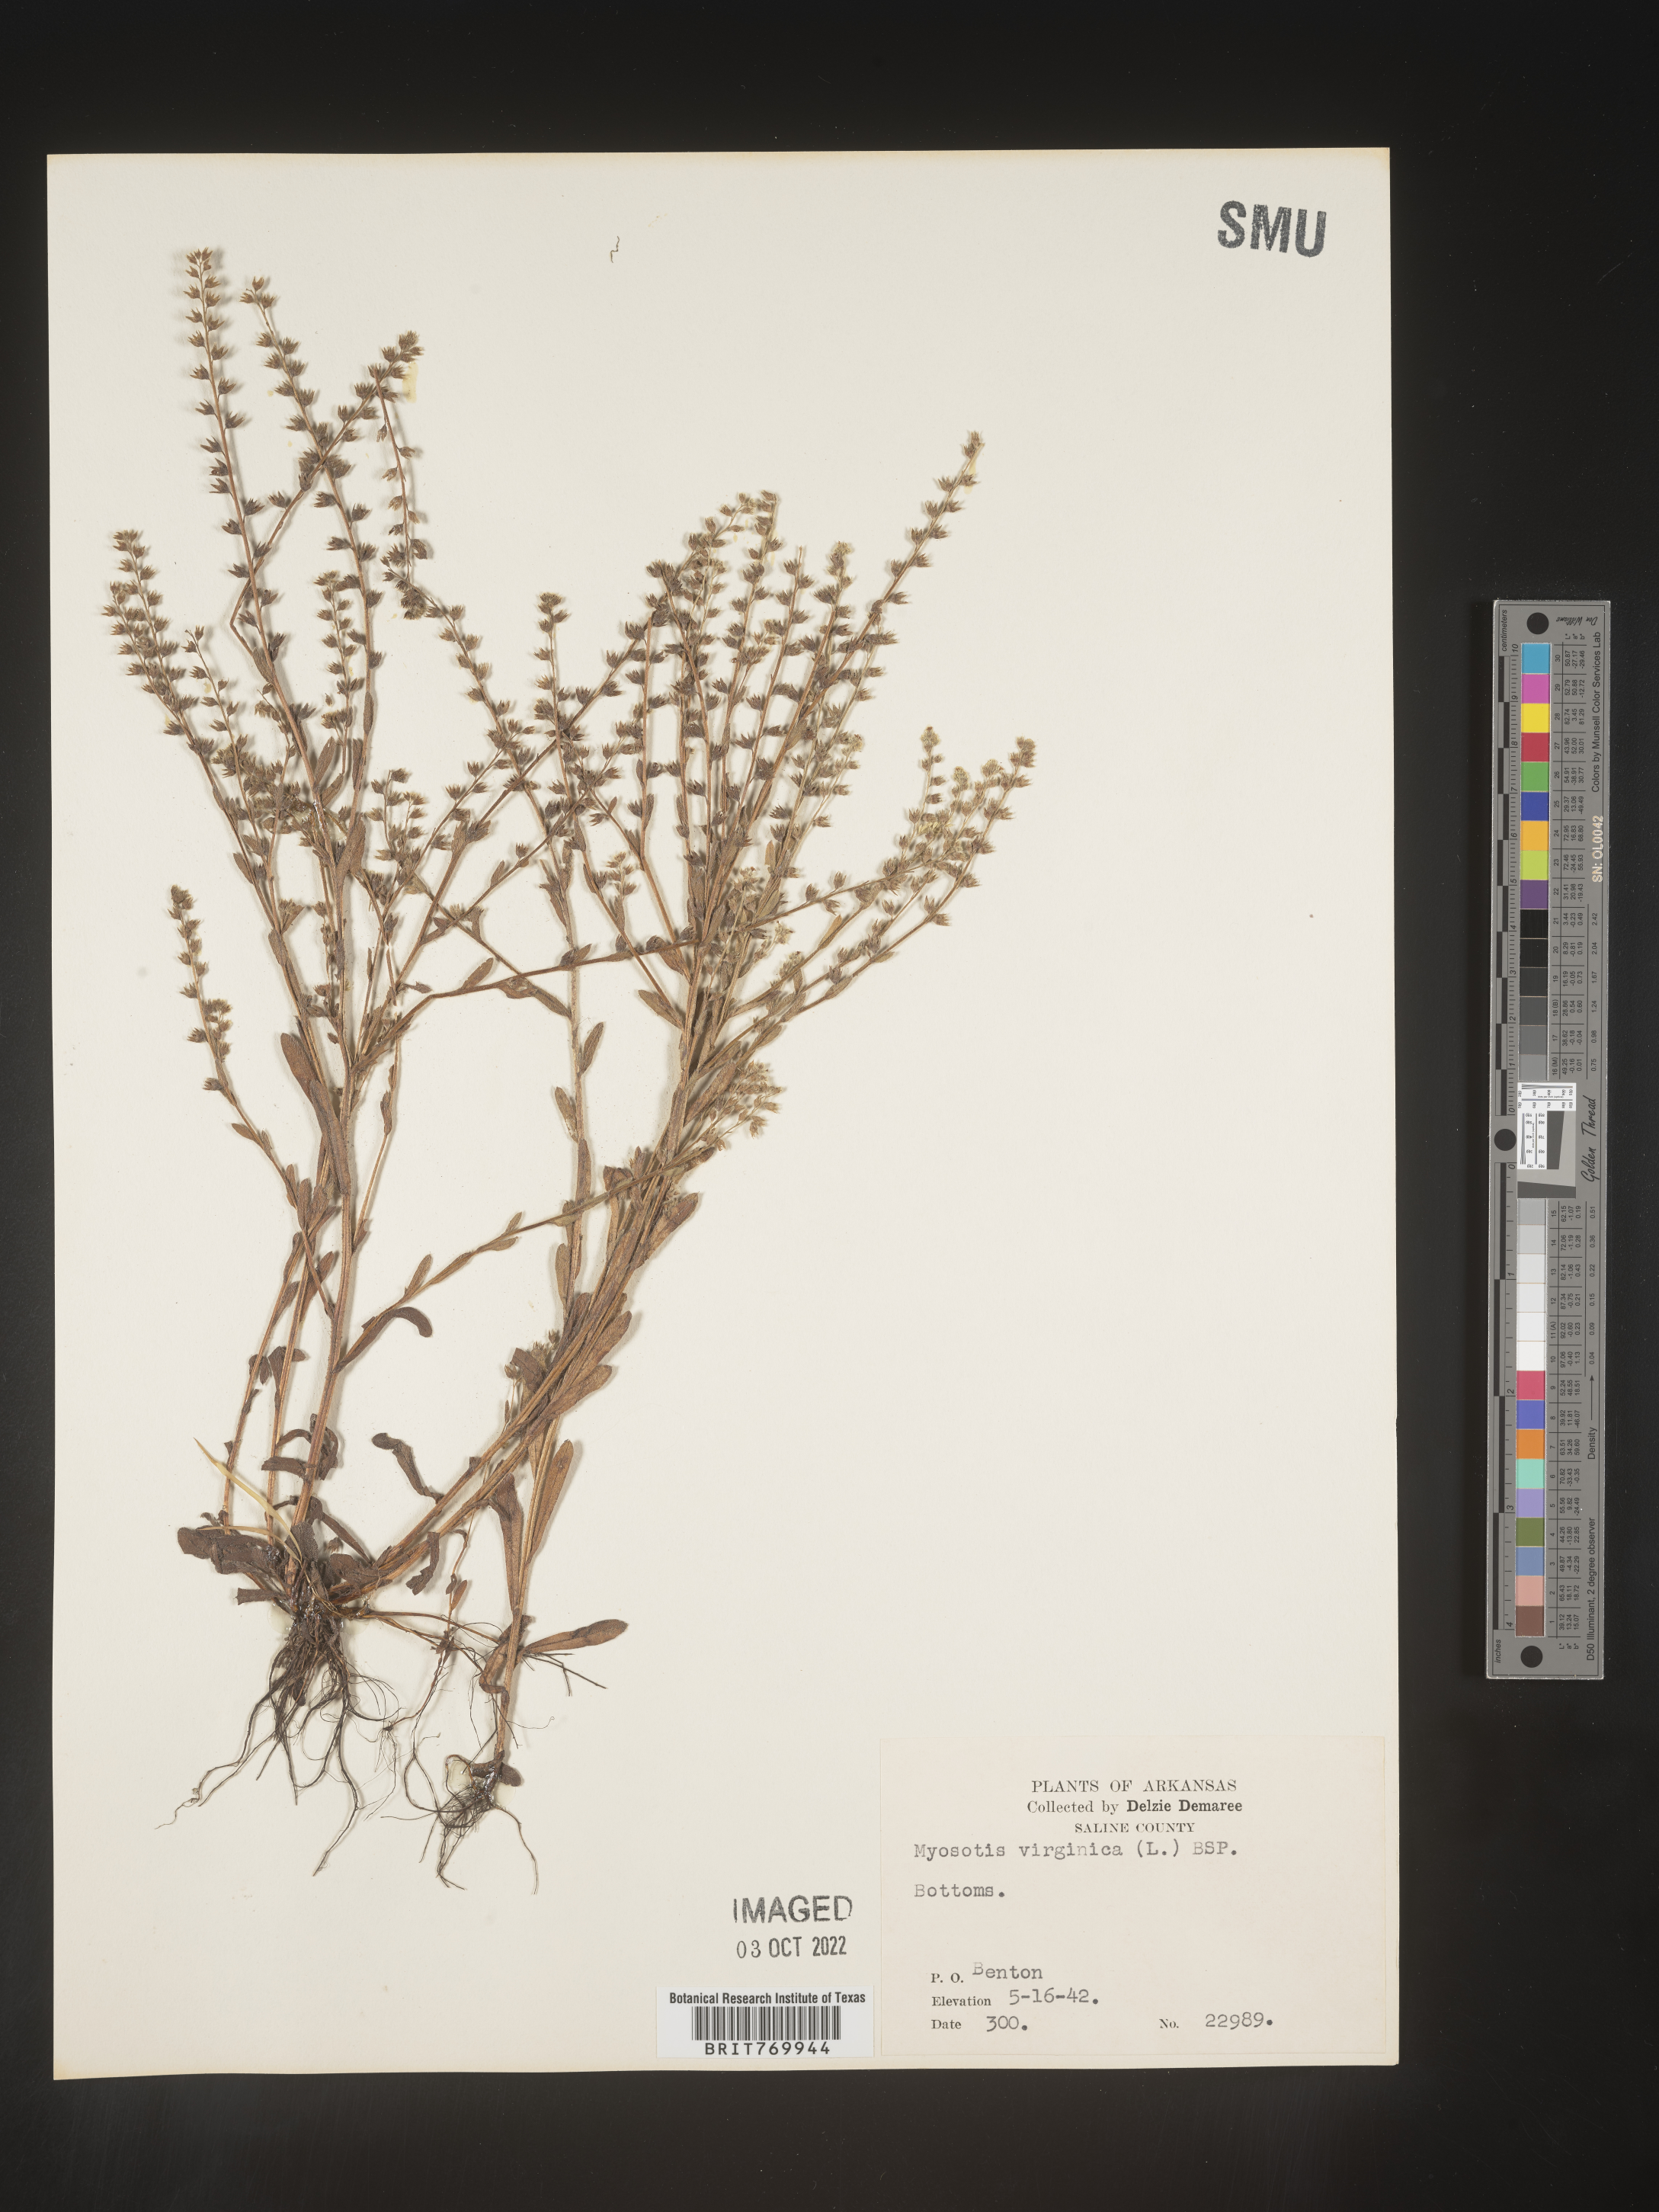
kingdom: Plantae
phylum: Tracheophyta
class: Magnoliopsida
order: Boraginales
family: Boraginaceae
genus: Myosotis
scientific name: Myosotis verna
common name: Early forget-me-not
